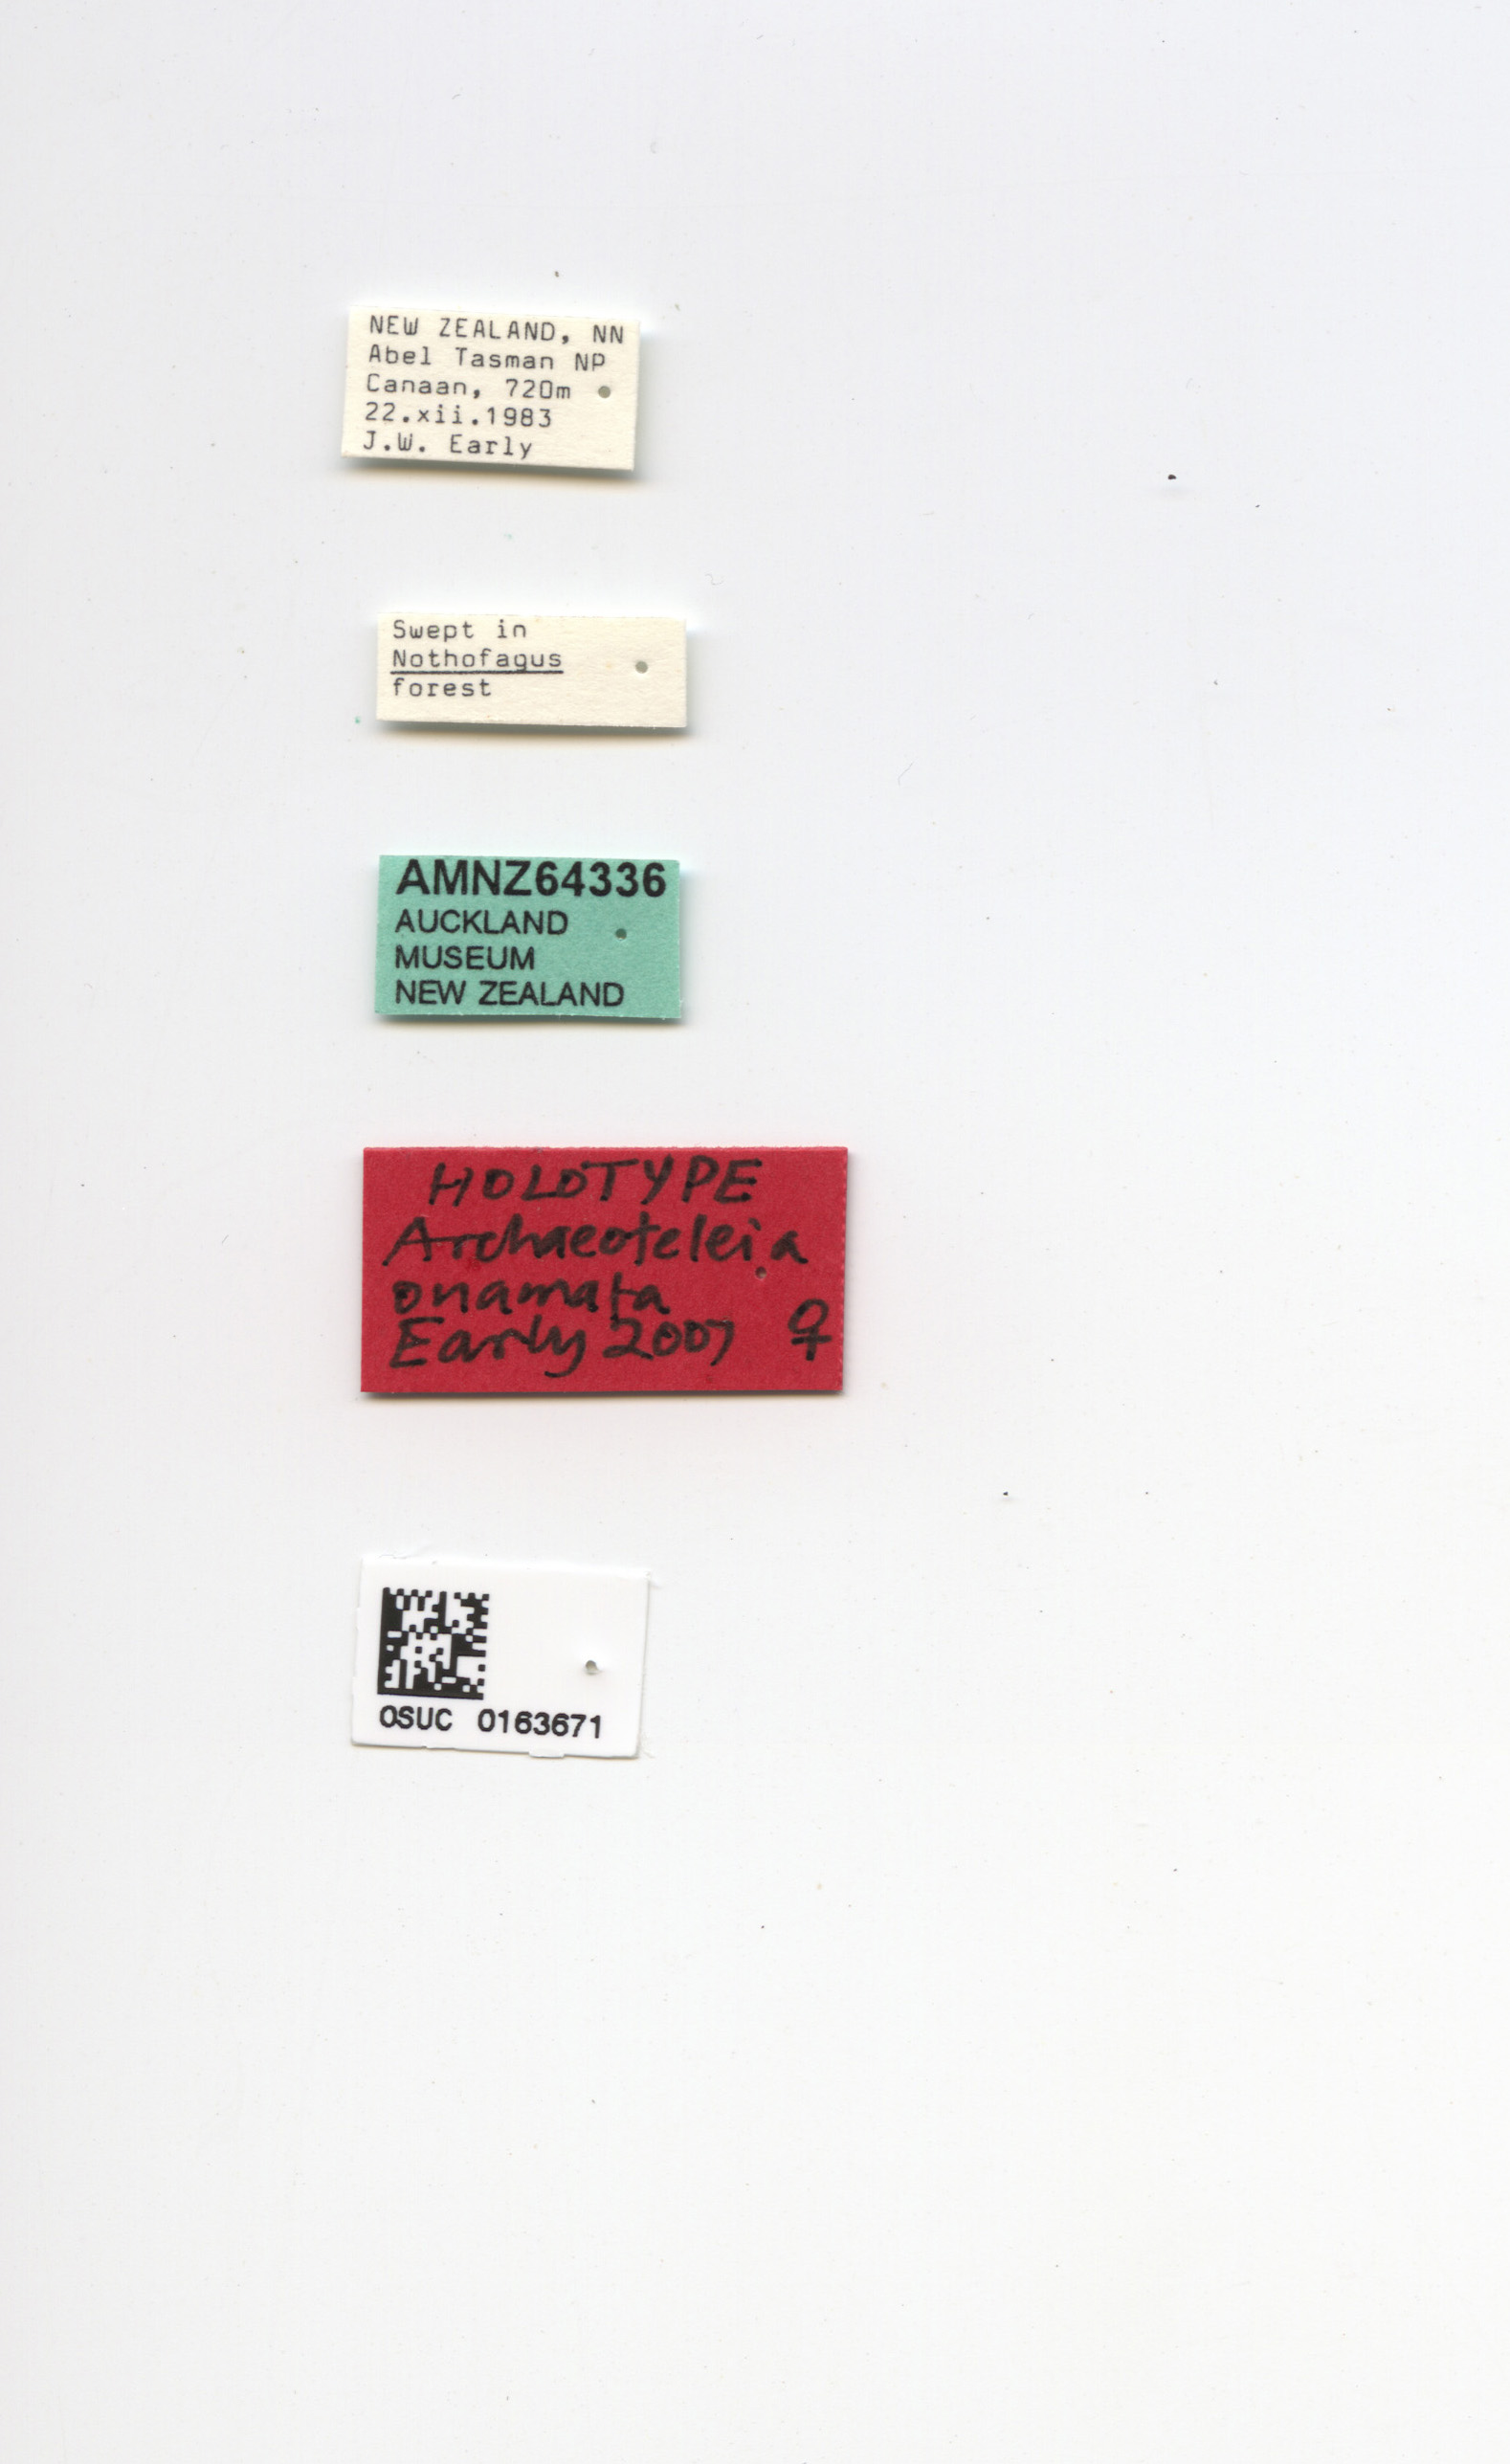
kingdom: Animalia
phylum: Arthropoda
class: Insecta
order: Hymenoptera
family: Scelionidae
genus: Archaeoteleia
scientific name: Archaeoteleia onamata
